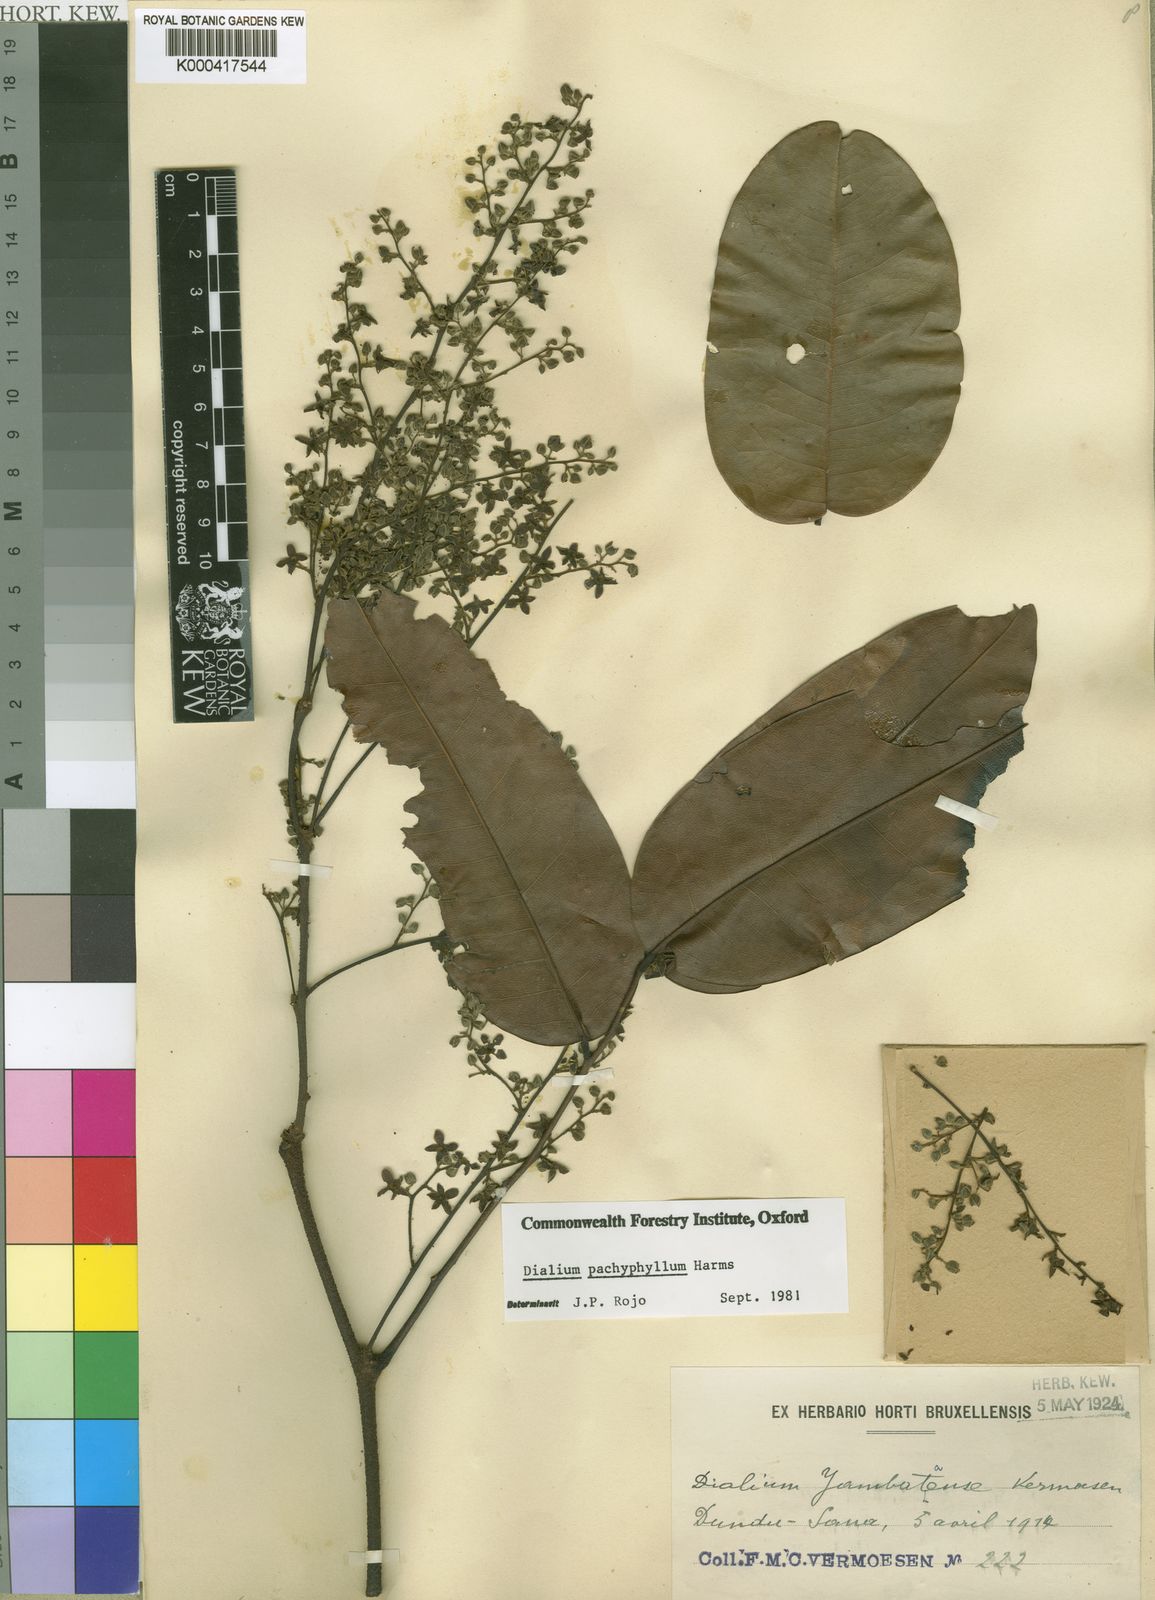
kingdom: Plantae
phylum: Tracheophyta
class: Magnoliopsida
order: Fabales
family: Fabaceae
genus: Dialium
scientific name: Dialium pachyphyllum
